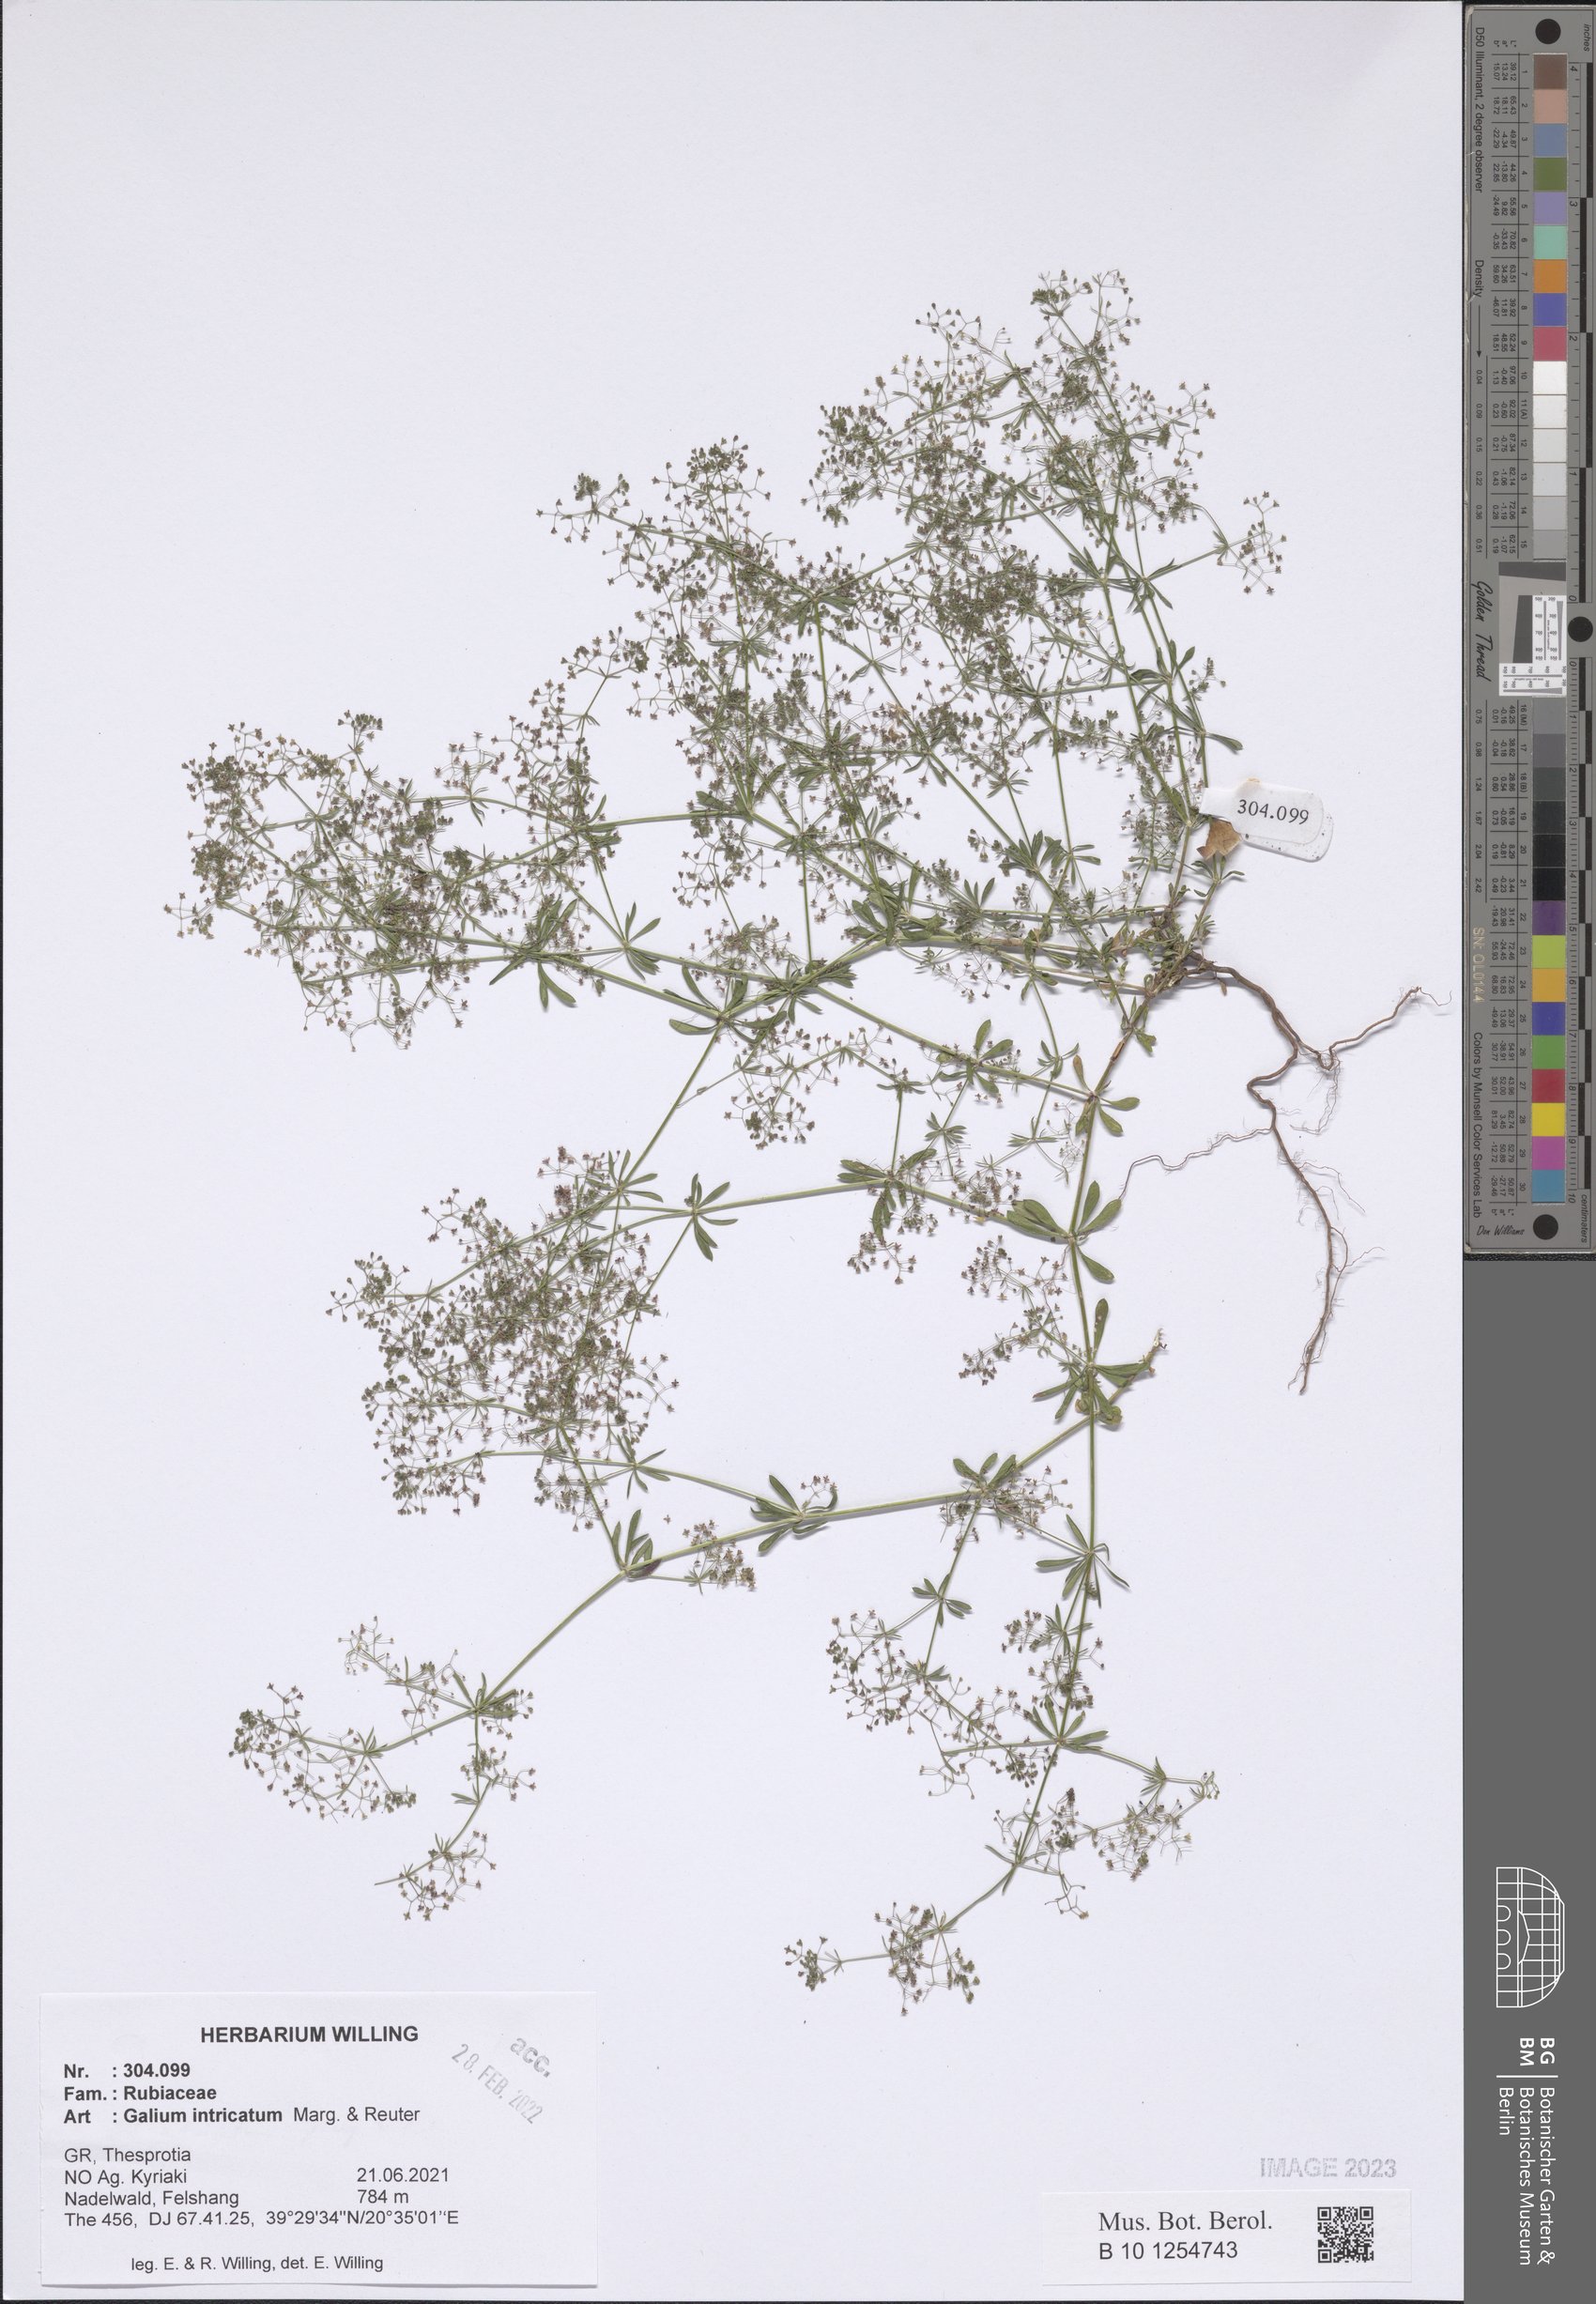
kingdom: Plantae
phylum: Tracheophyta
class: Magnoliopsida
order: Gentianales
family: Rubiaceae
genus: Galium
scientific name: Galium intricatum
